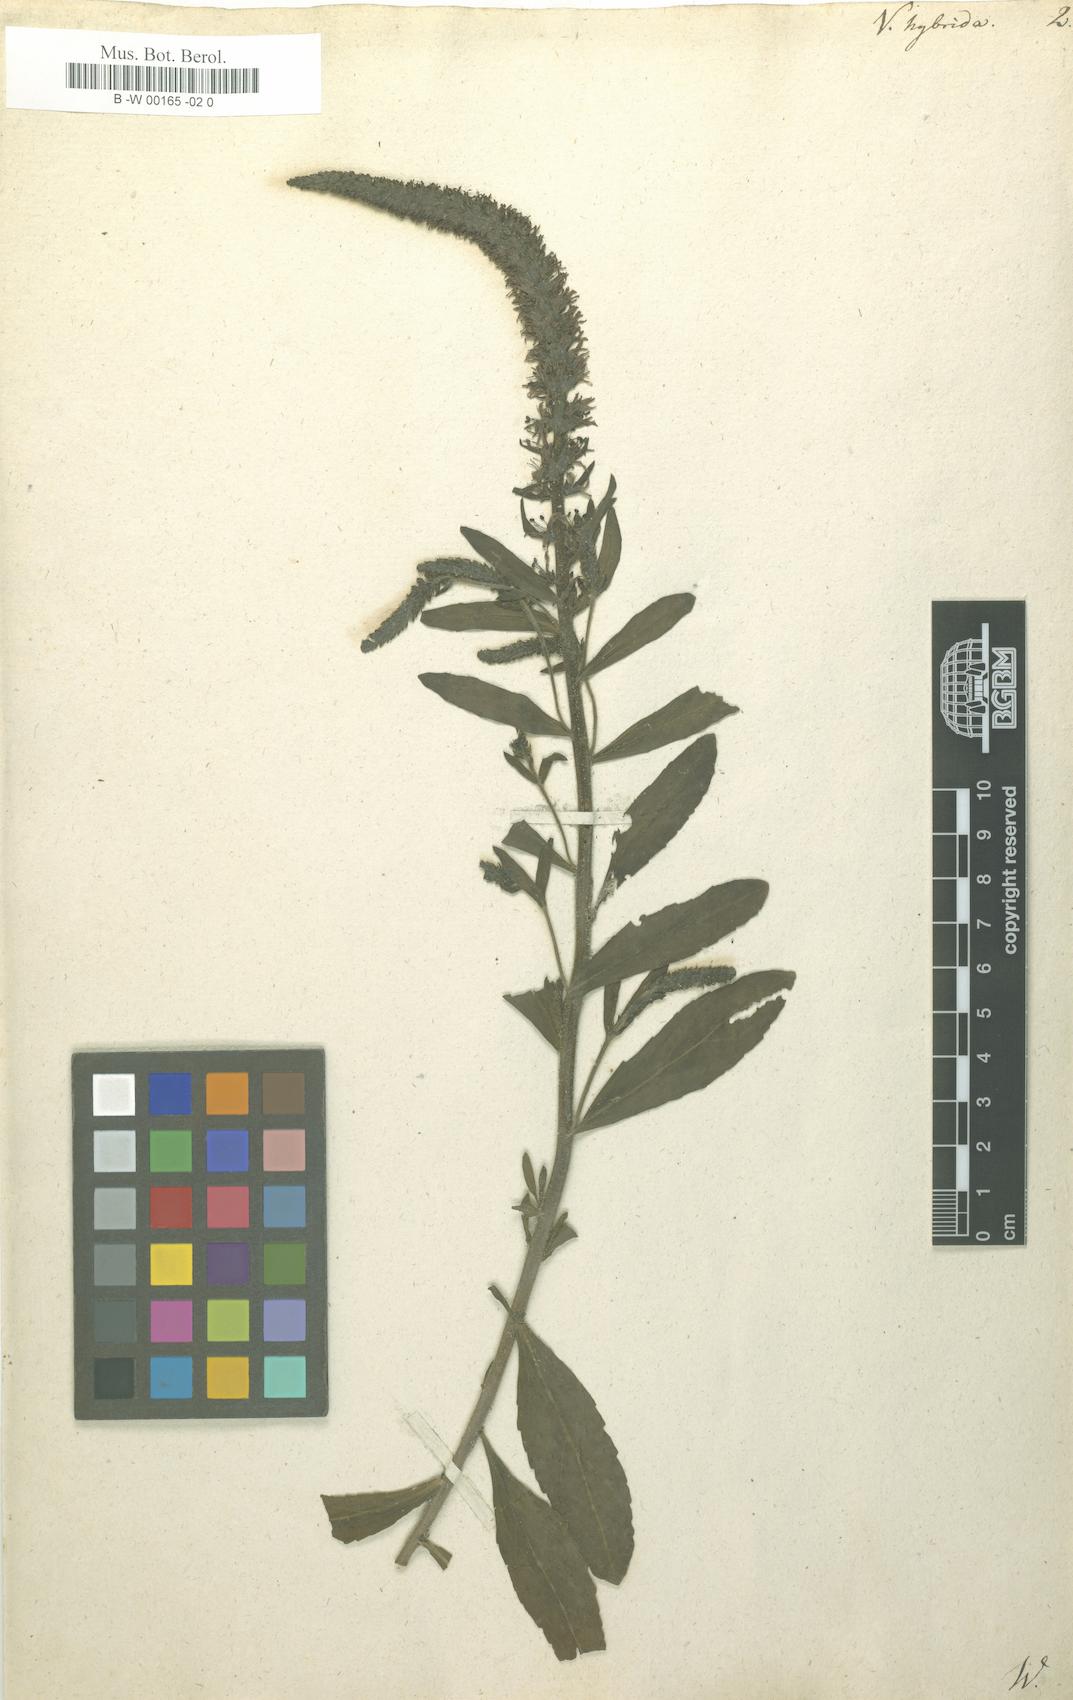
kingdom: Plantae
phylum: Tracheophyta
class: Magnoliopsida
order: Lamiales
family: Plantaginaceae
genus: Veronica
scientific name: Veronica spicata
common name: Spiked speedwell
